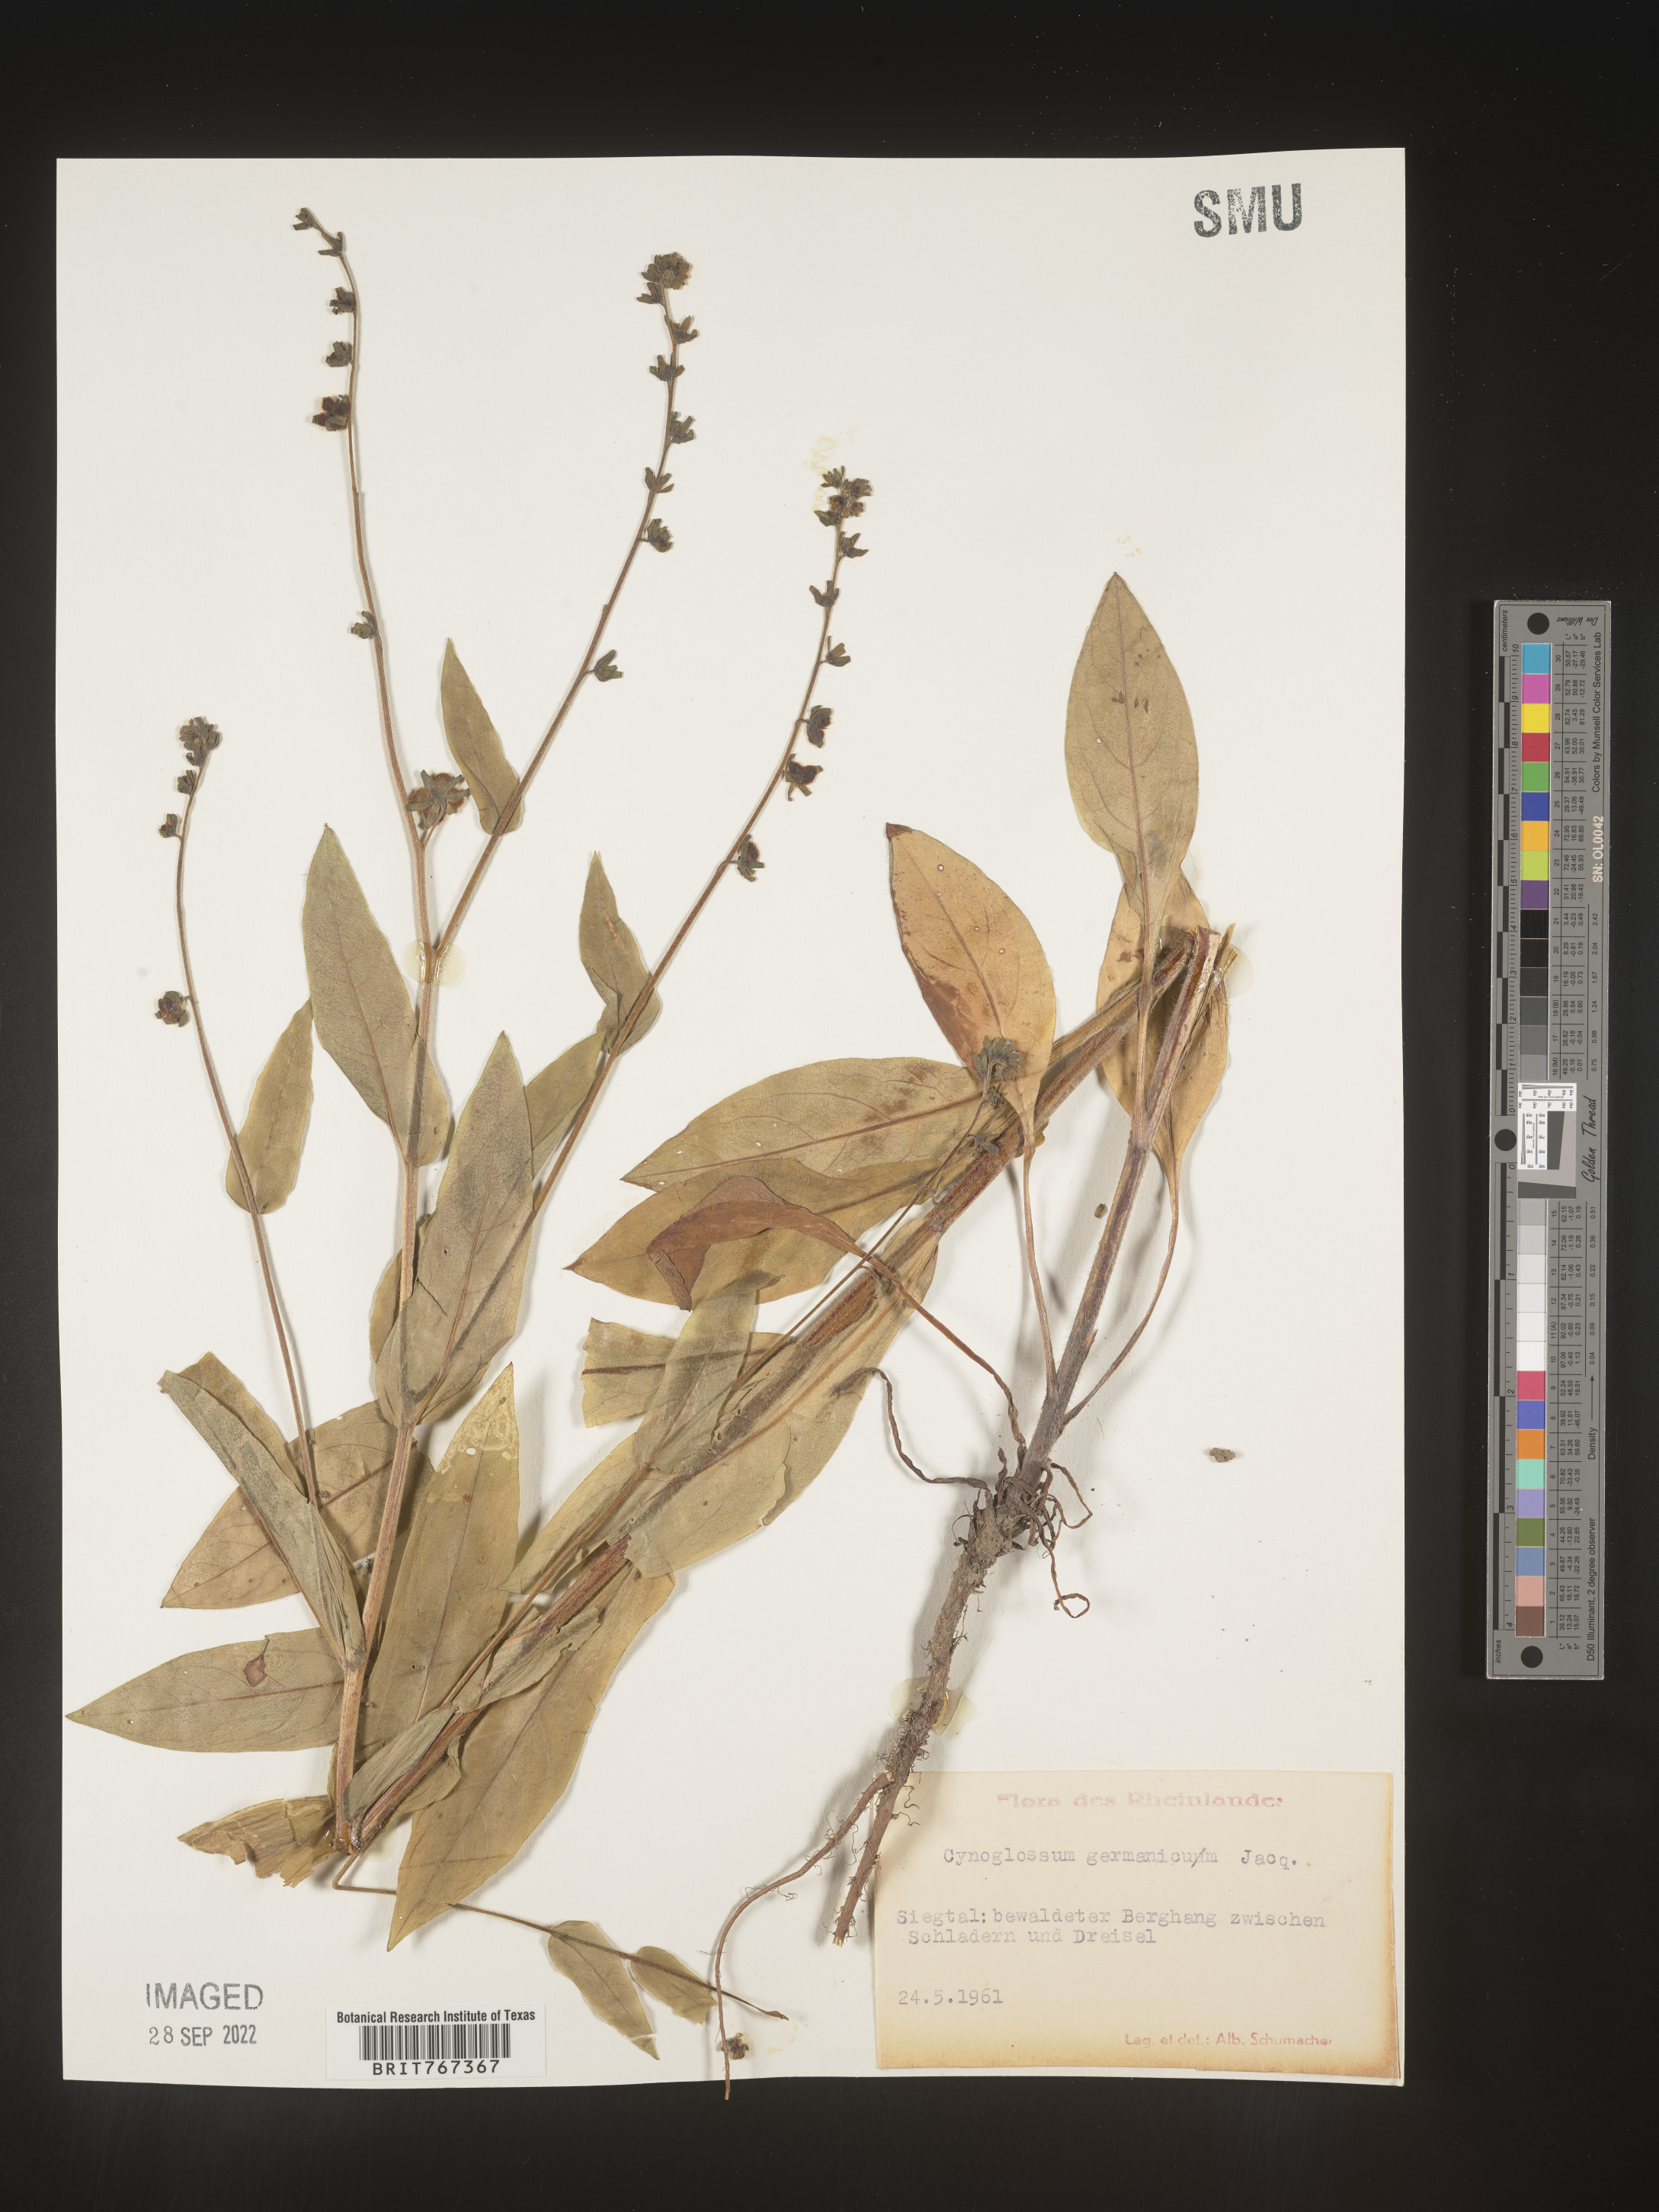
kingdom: Plantae
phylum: Tracheophyta
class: Magnoliopsida
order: Boraginales
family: Boraginaceae
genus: Cynoglossum
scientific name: Cynoglossum
